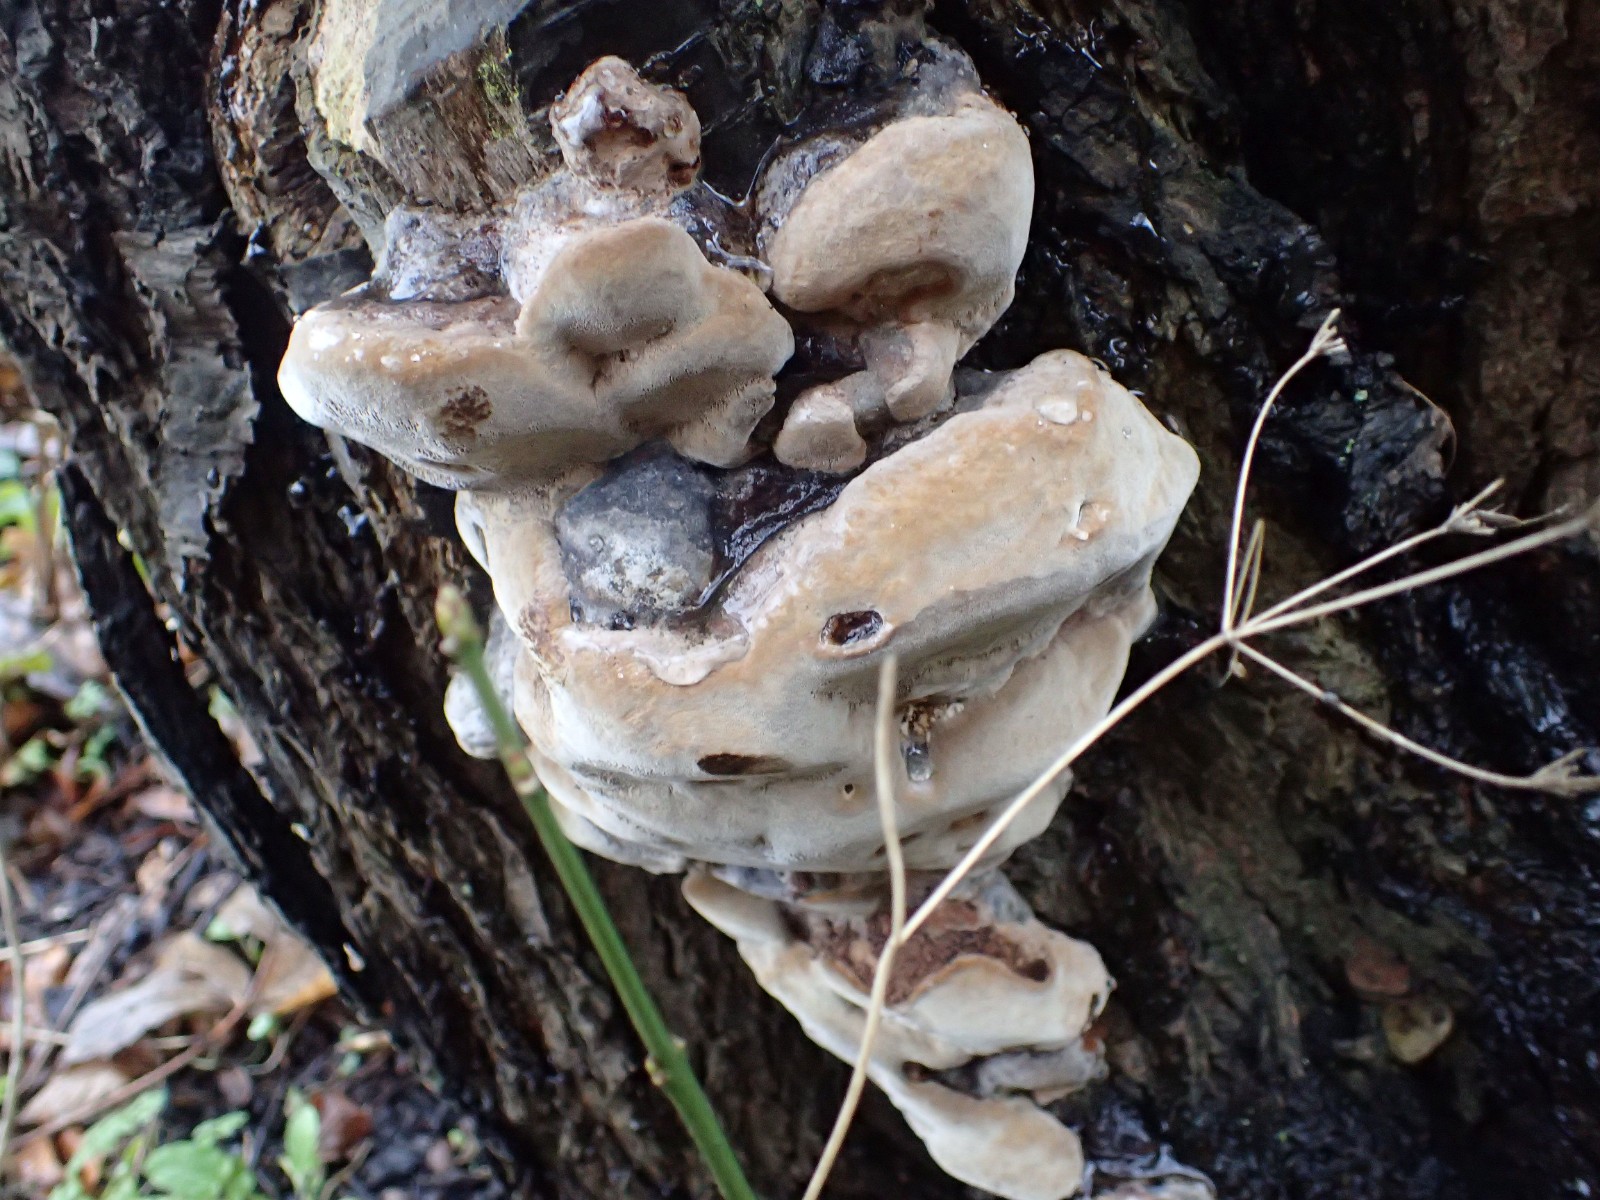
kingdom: Fungi
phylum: Basidiomycota
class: Agaricomycetes
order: Hymenochaetales
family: Hymenochaetaceae
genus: Phellinus
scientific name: Phellinus pomaceus
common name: blomme-ildporesvamp
